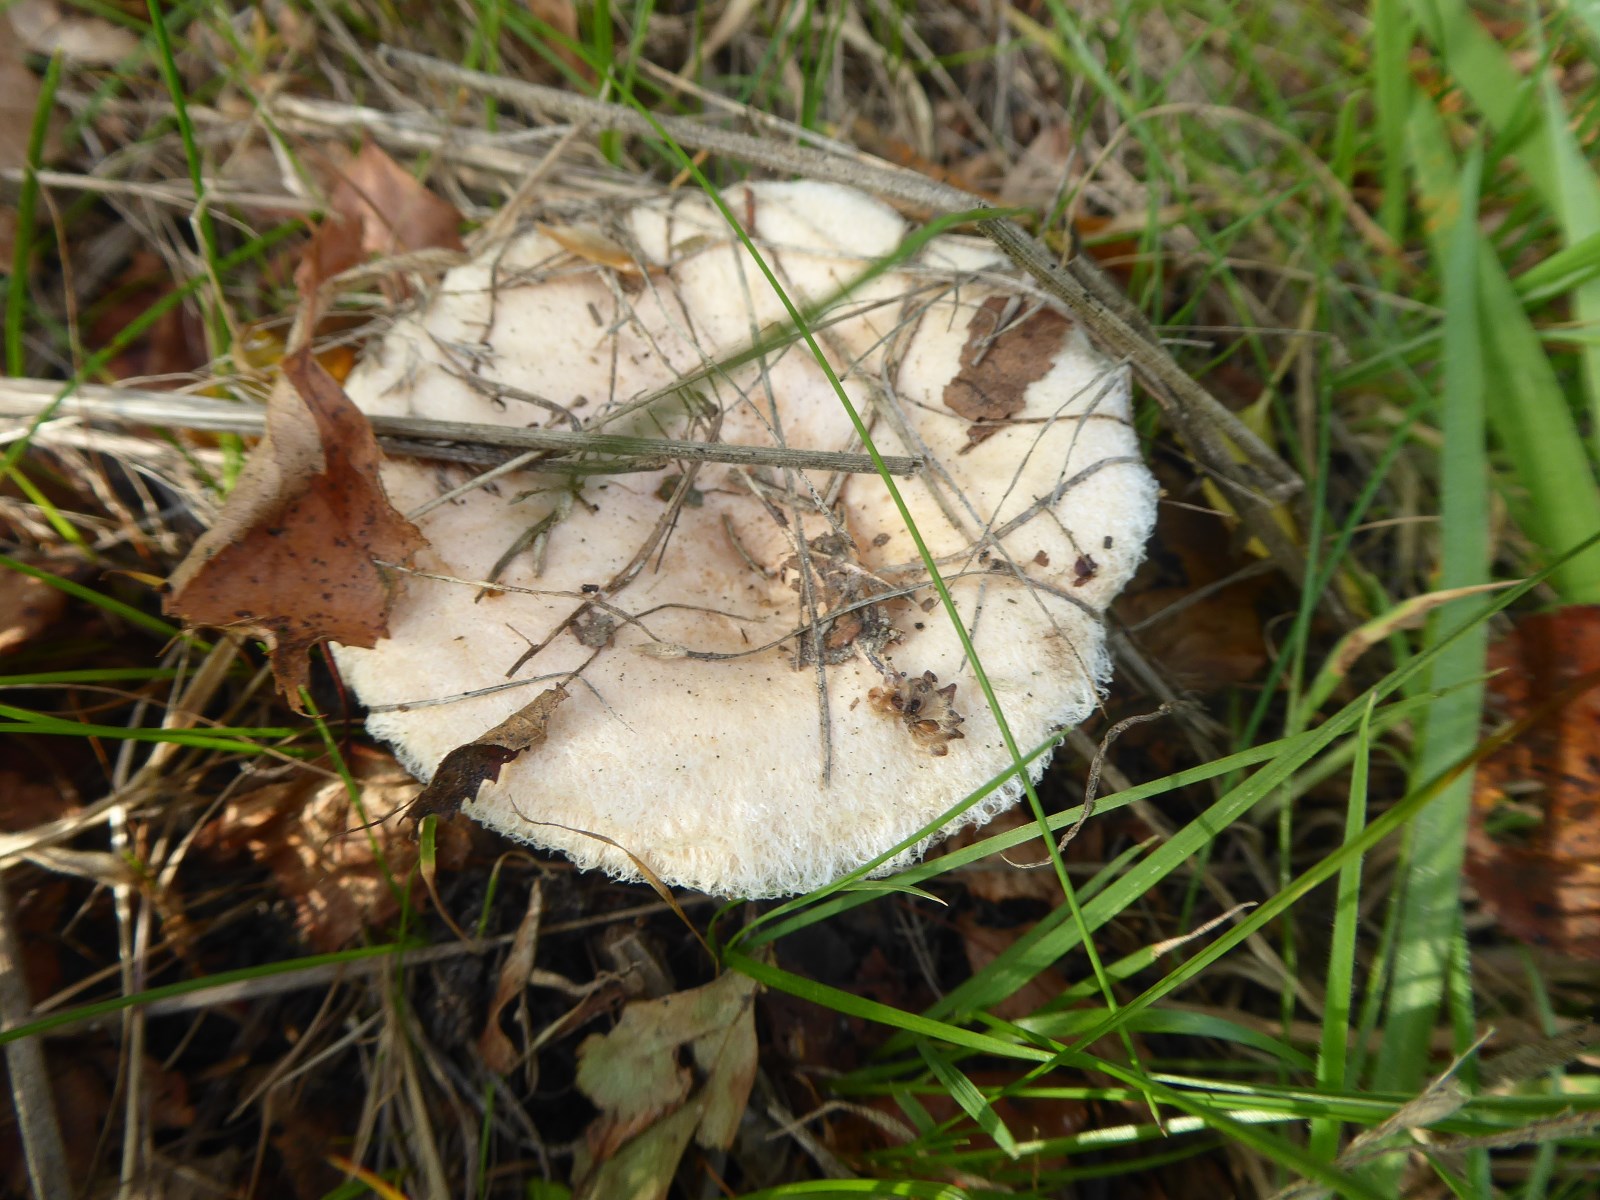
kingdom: Fungi
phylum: Basidiomycota
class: Agaricomycetes
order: Russulales
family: Russulaceae
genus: Lactarius
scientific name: Lactarius pubescens
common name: dunet mælkehat
